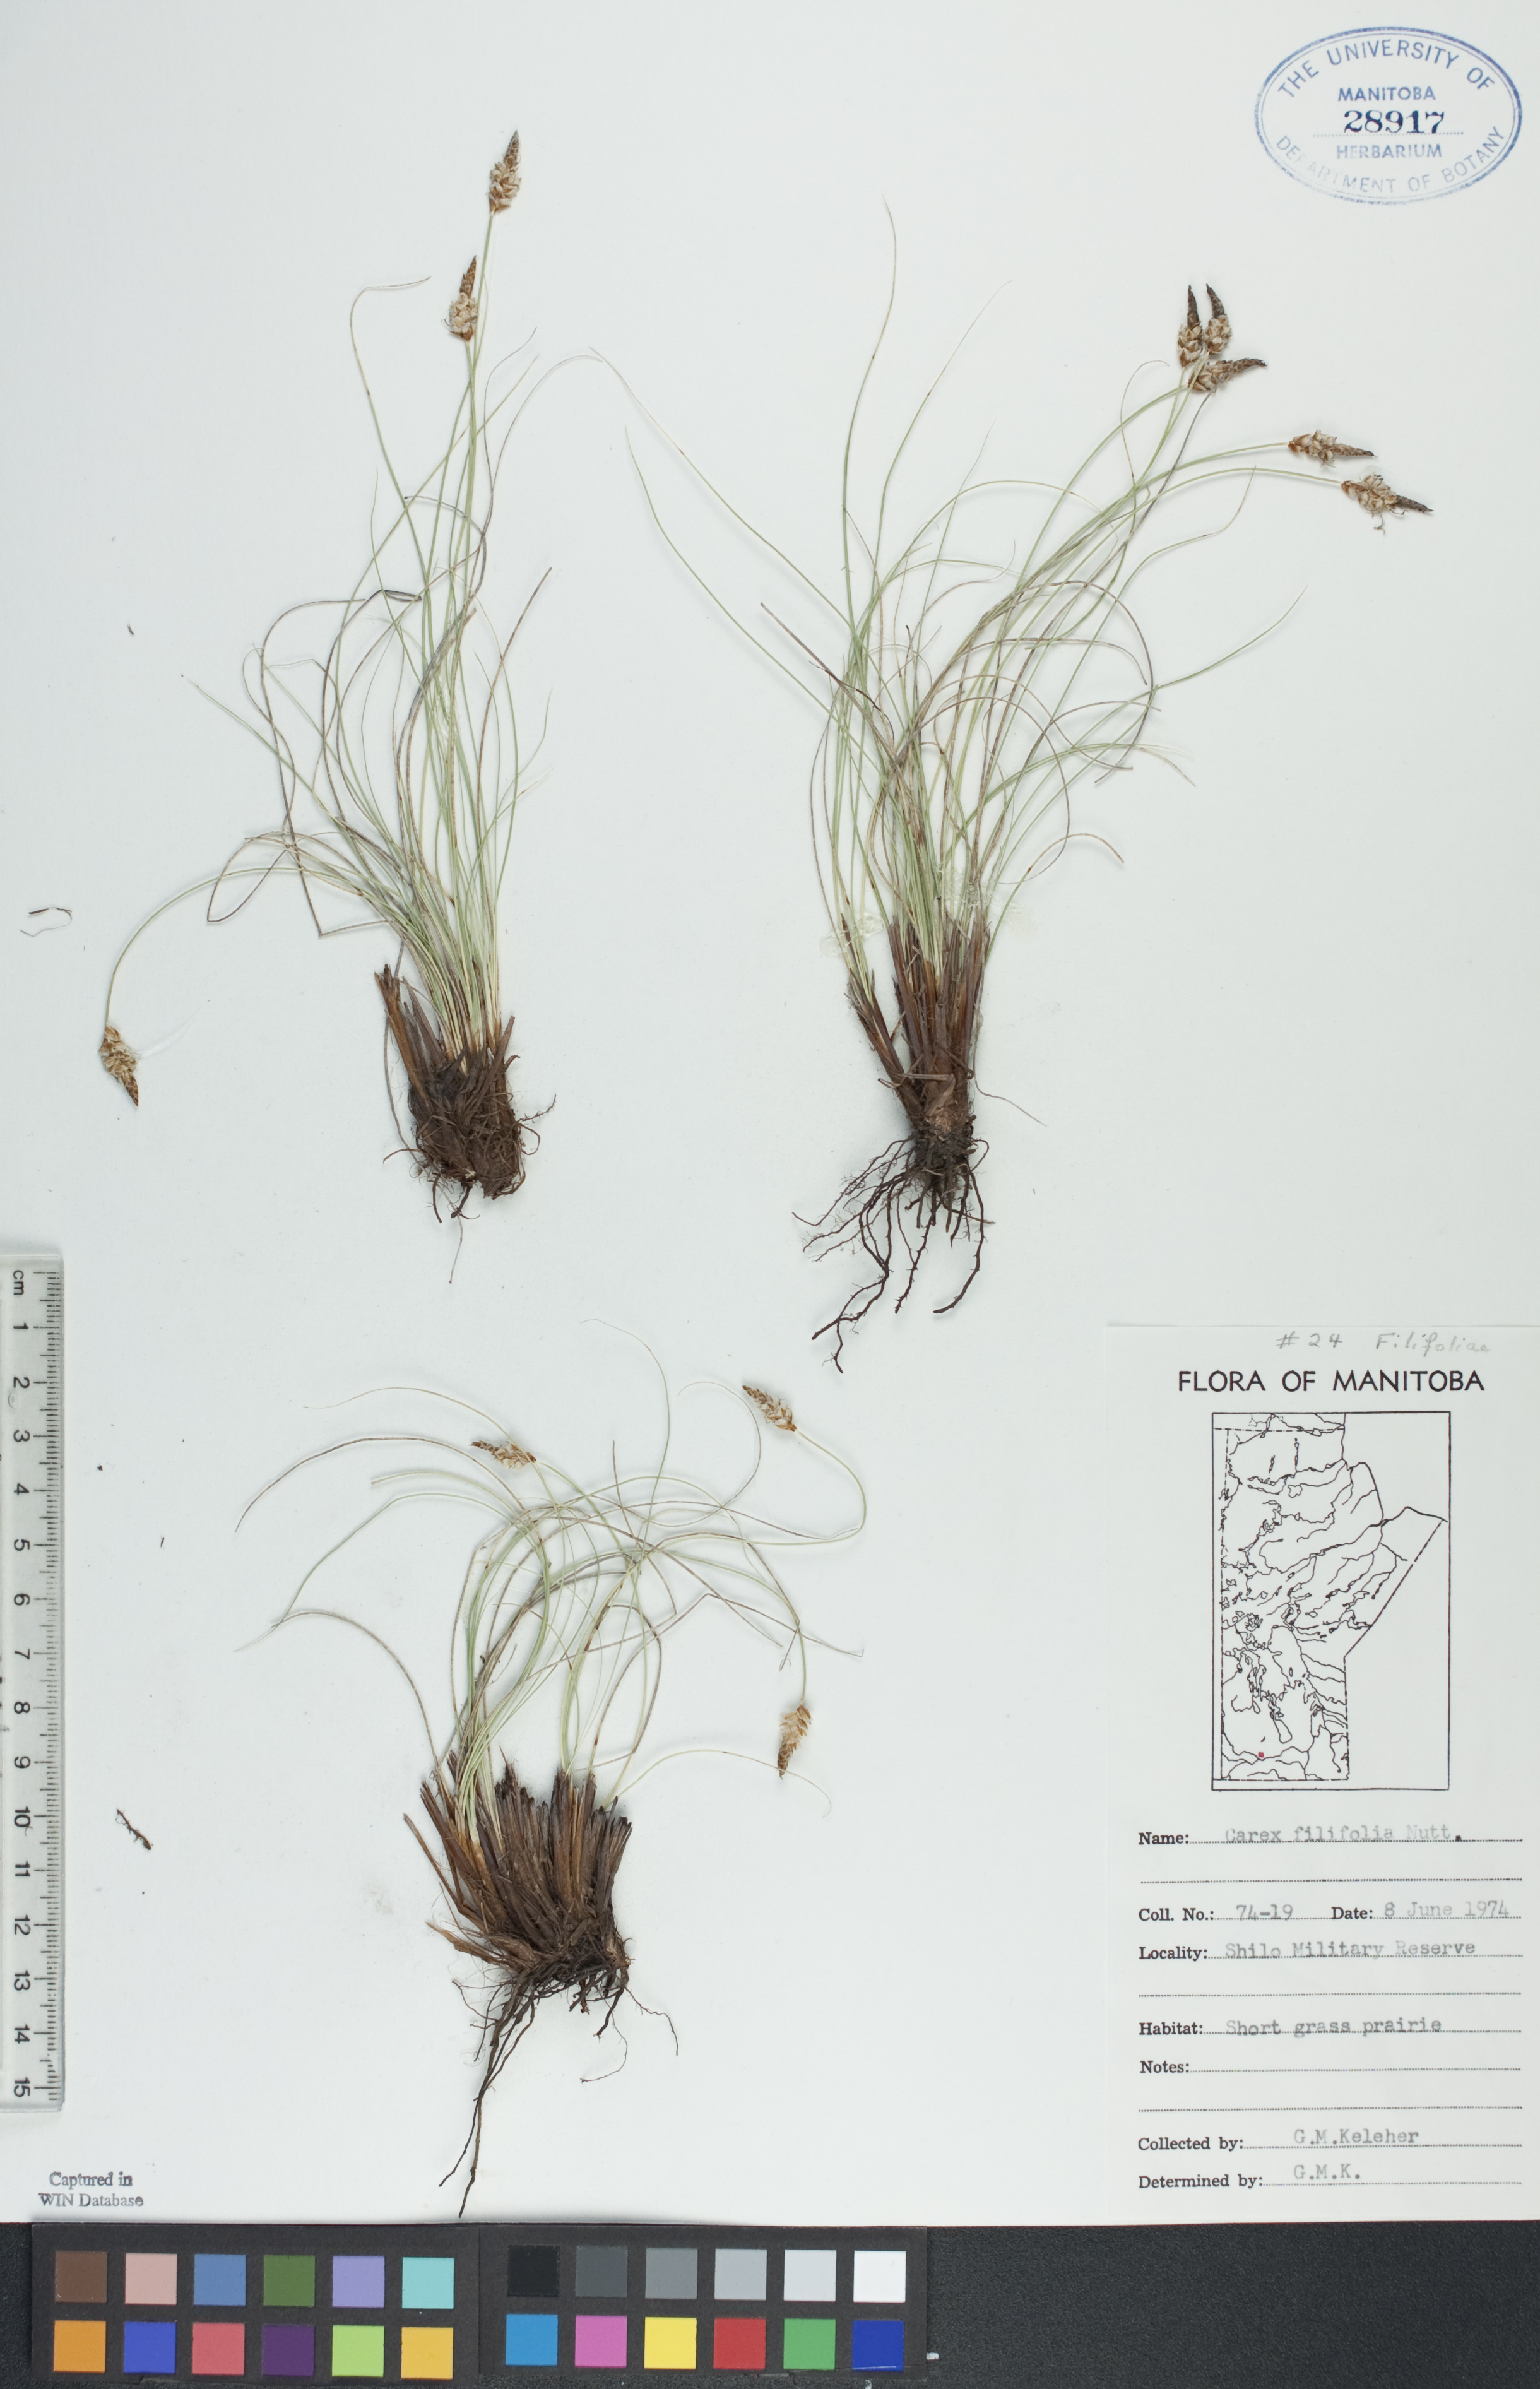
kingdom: Plantae
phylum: Tracheophyta
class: Liliopsida
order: Poales
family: Cyperaceae
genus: Carex
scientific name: Carex filifolia
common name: Threadleaf sedge
